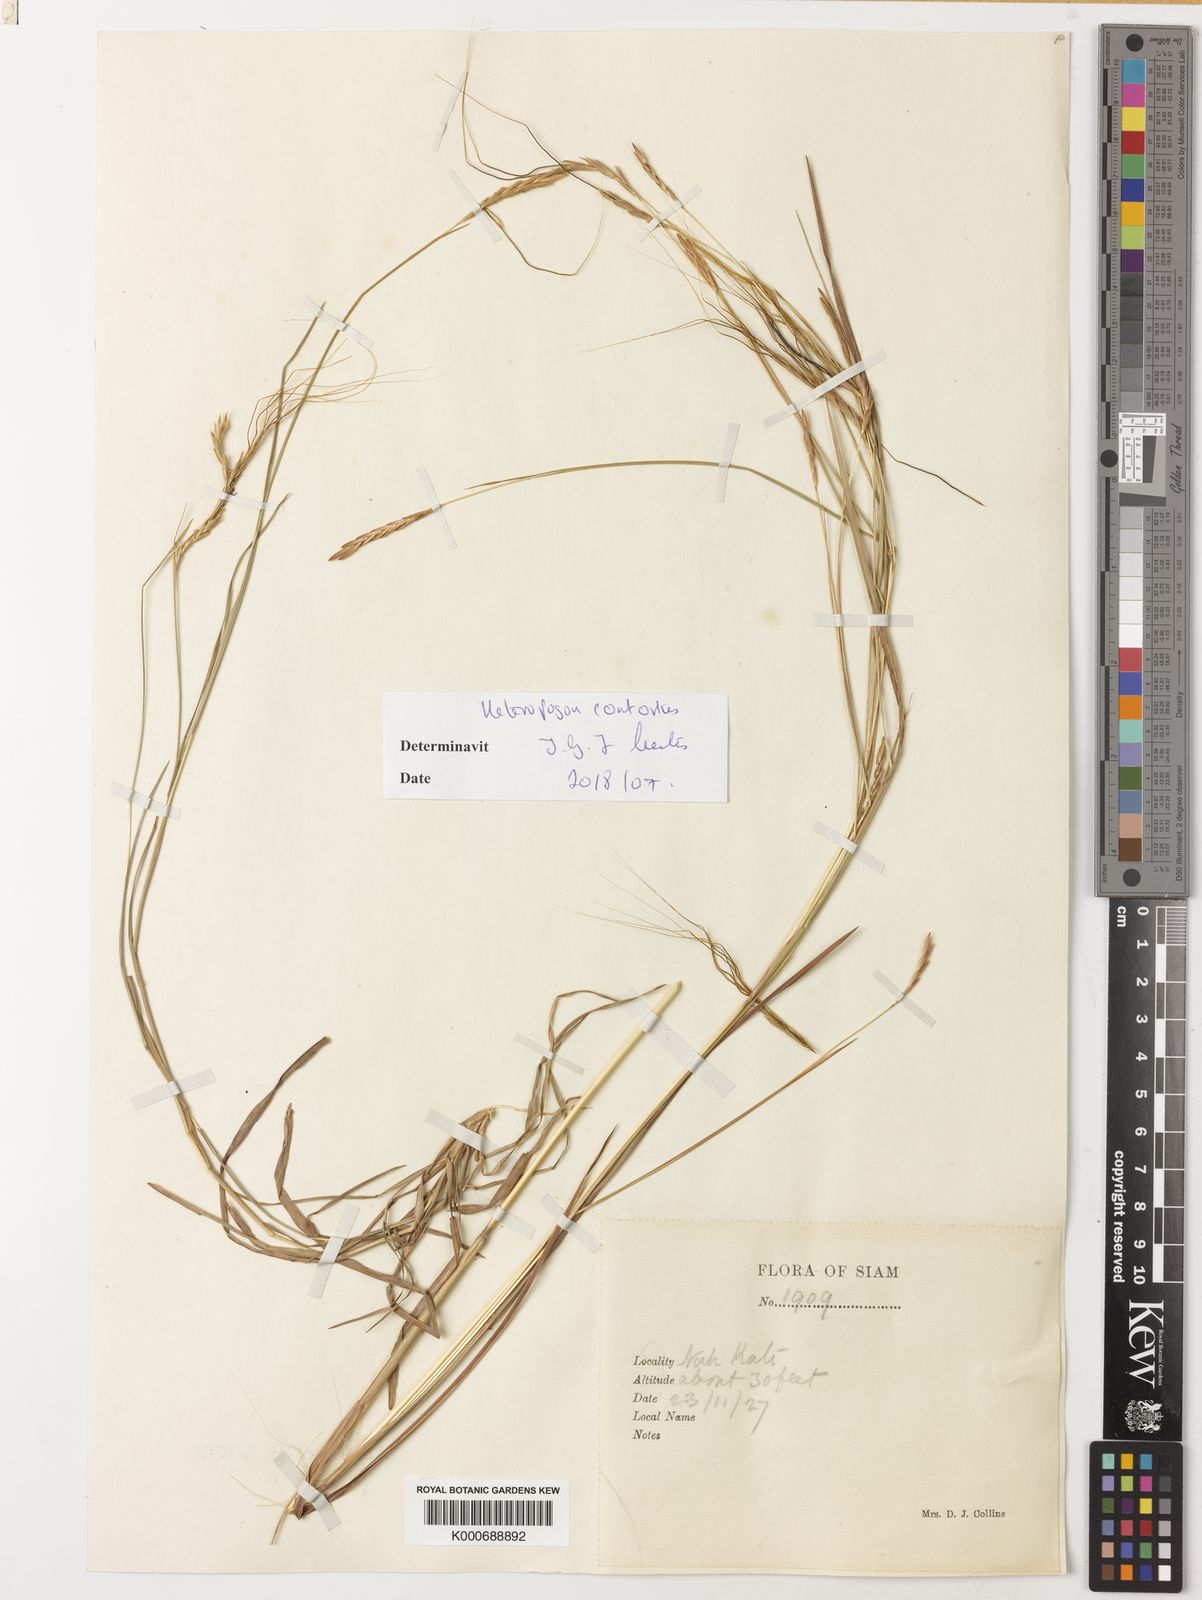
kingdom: Plantae
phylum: Tracheophyta
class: Liliopsida
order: Poales
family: Poaceae
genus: Heteropogon
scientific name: Heteropogon contortus
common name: Tanglehead
